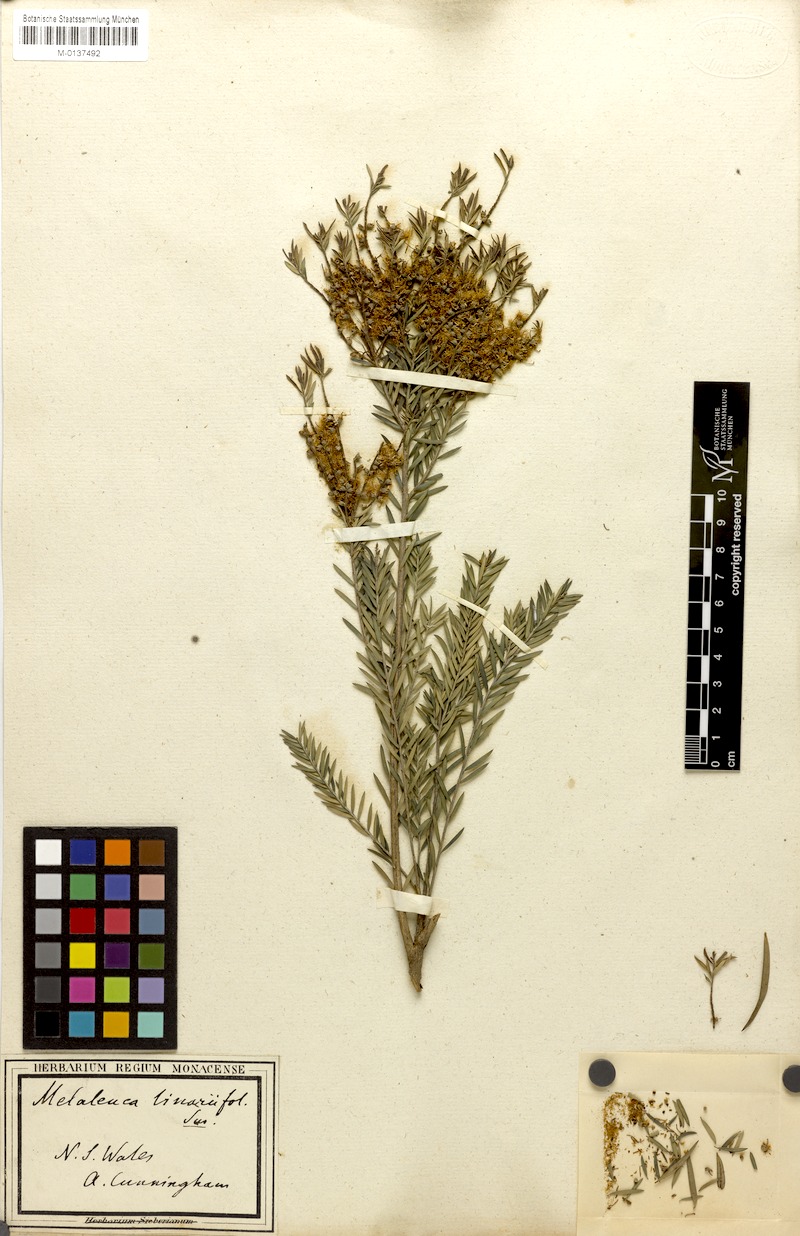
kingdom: Plantae
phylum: Tracheophyta
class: Magnoliopsida
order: Myrtales
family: Myrtaceae
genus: Melaleuca
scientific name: Melaleuca linariifolia
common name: Cajeput tree
